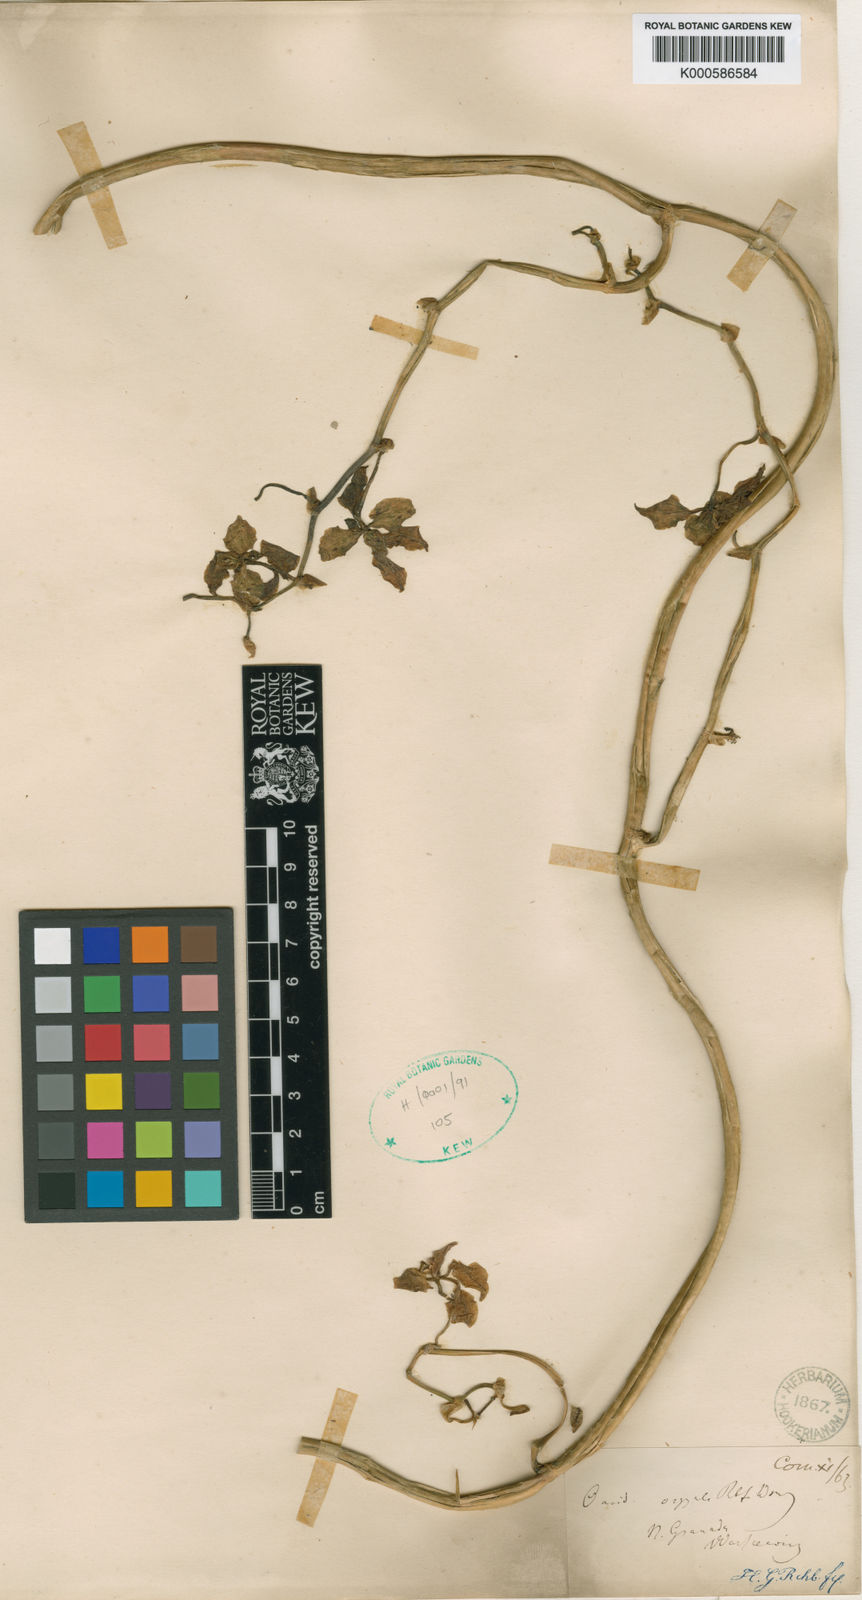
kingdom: Plantae
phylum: Tracheophyta
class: Liliopsida
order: Asparagales
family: Orchidaceae
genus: Cyrtochilum
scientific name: Cyrtochilum orgyale
